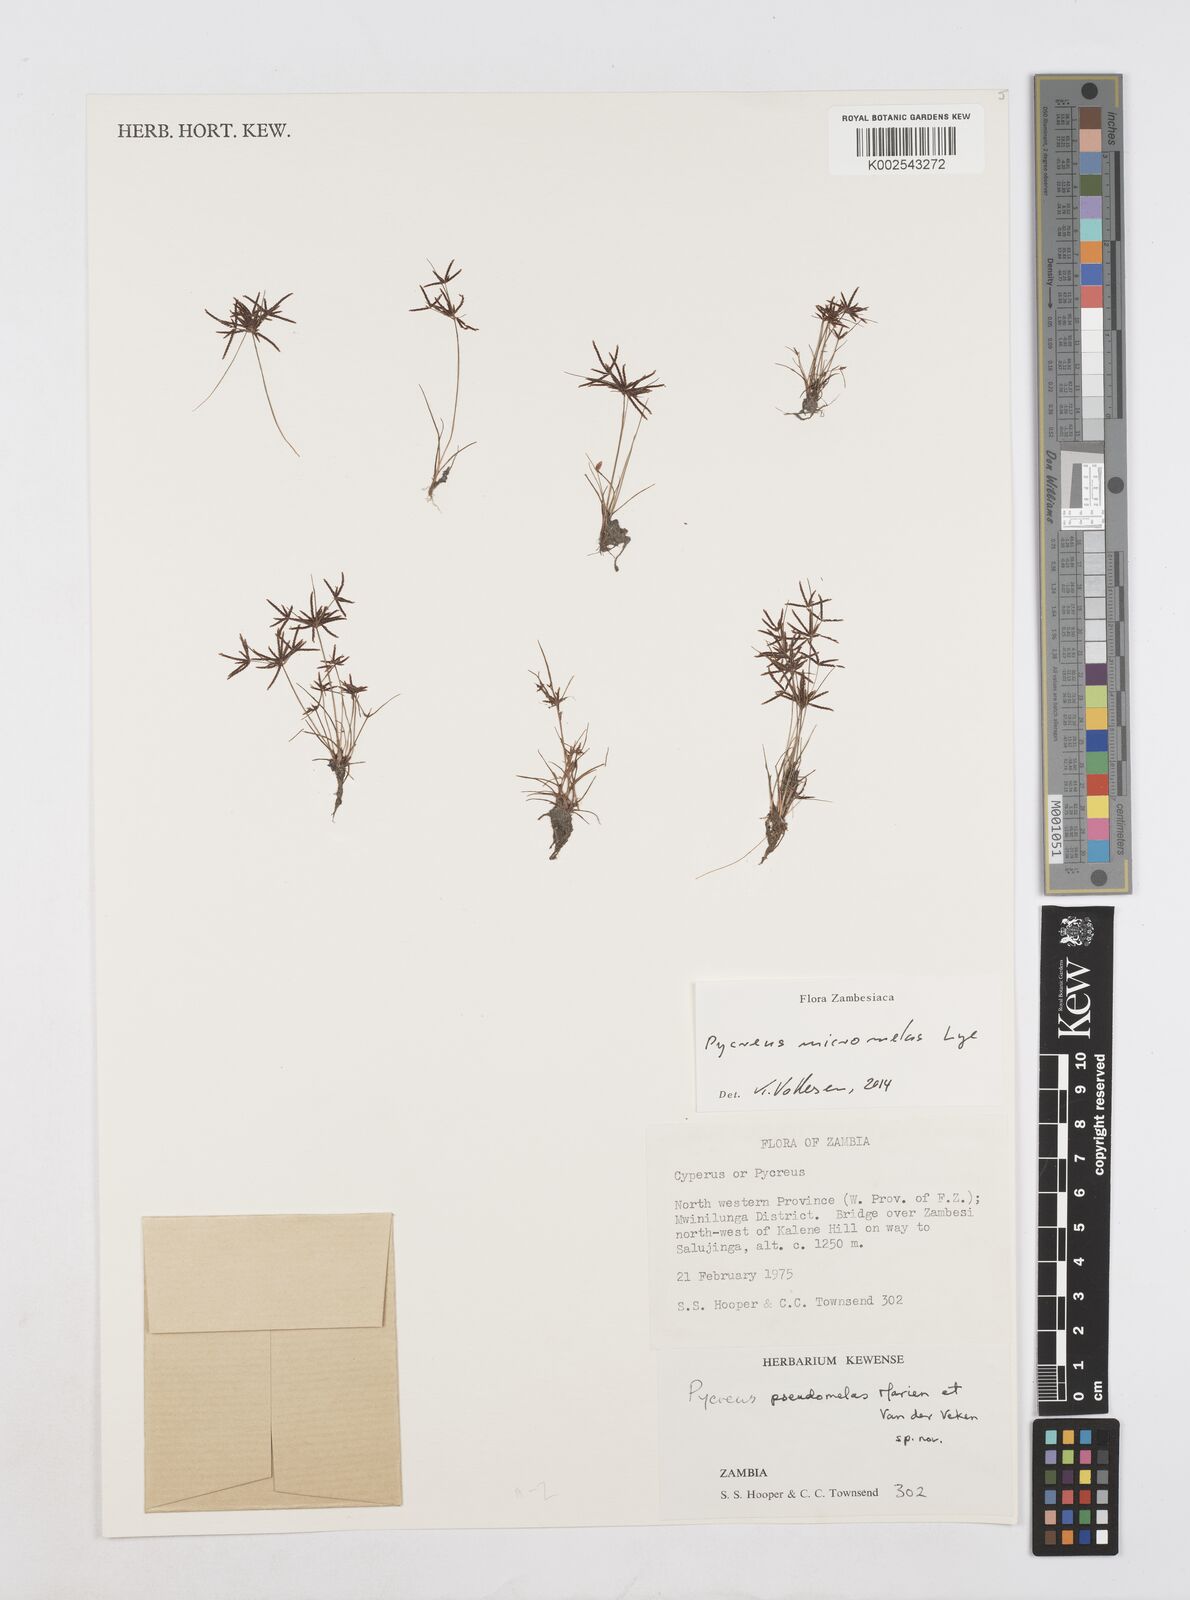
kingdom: Plantae
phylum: Tracheophyta
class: Liliopsida
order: Poales
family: Cyperaceae
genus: Cyperus
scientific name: Cyperus micromelas
